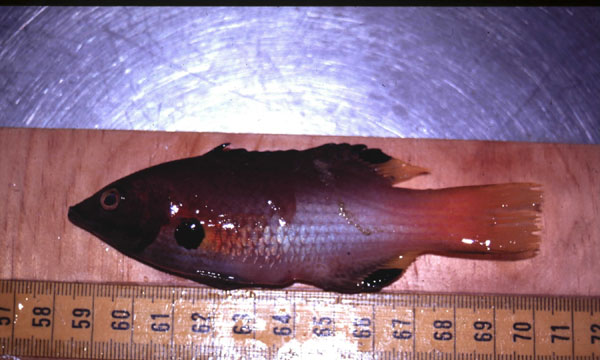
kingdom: Animalia
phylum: Chordata
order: Perciformes
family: Labridae
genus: Bodianus
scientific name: Bodianus axillaris
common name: Axilspot hogfish
